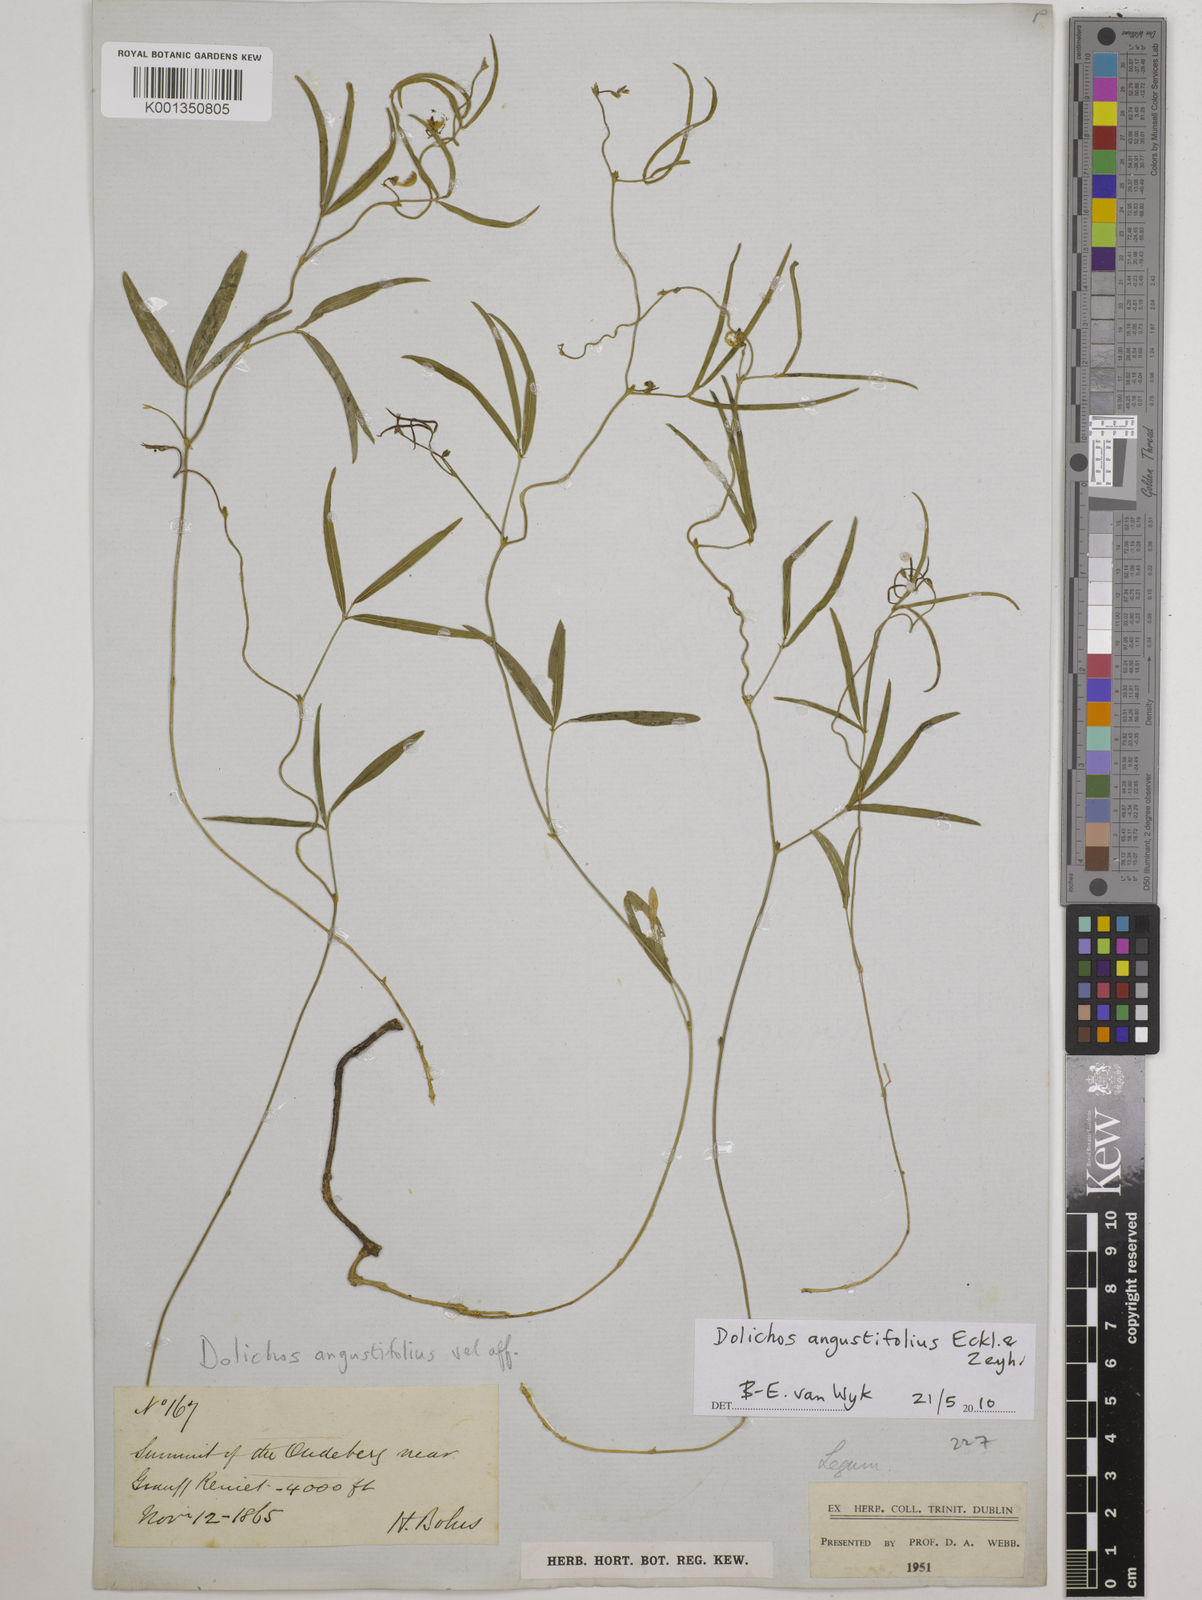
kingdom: Plantae
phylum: Tracheophyta
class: Magnoliopsida
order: Fabales
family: Fabaceae
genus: Dolichos
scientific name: Dolichos
